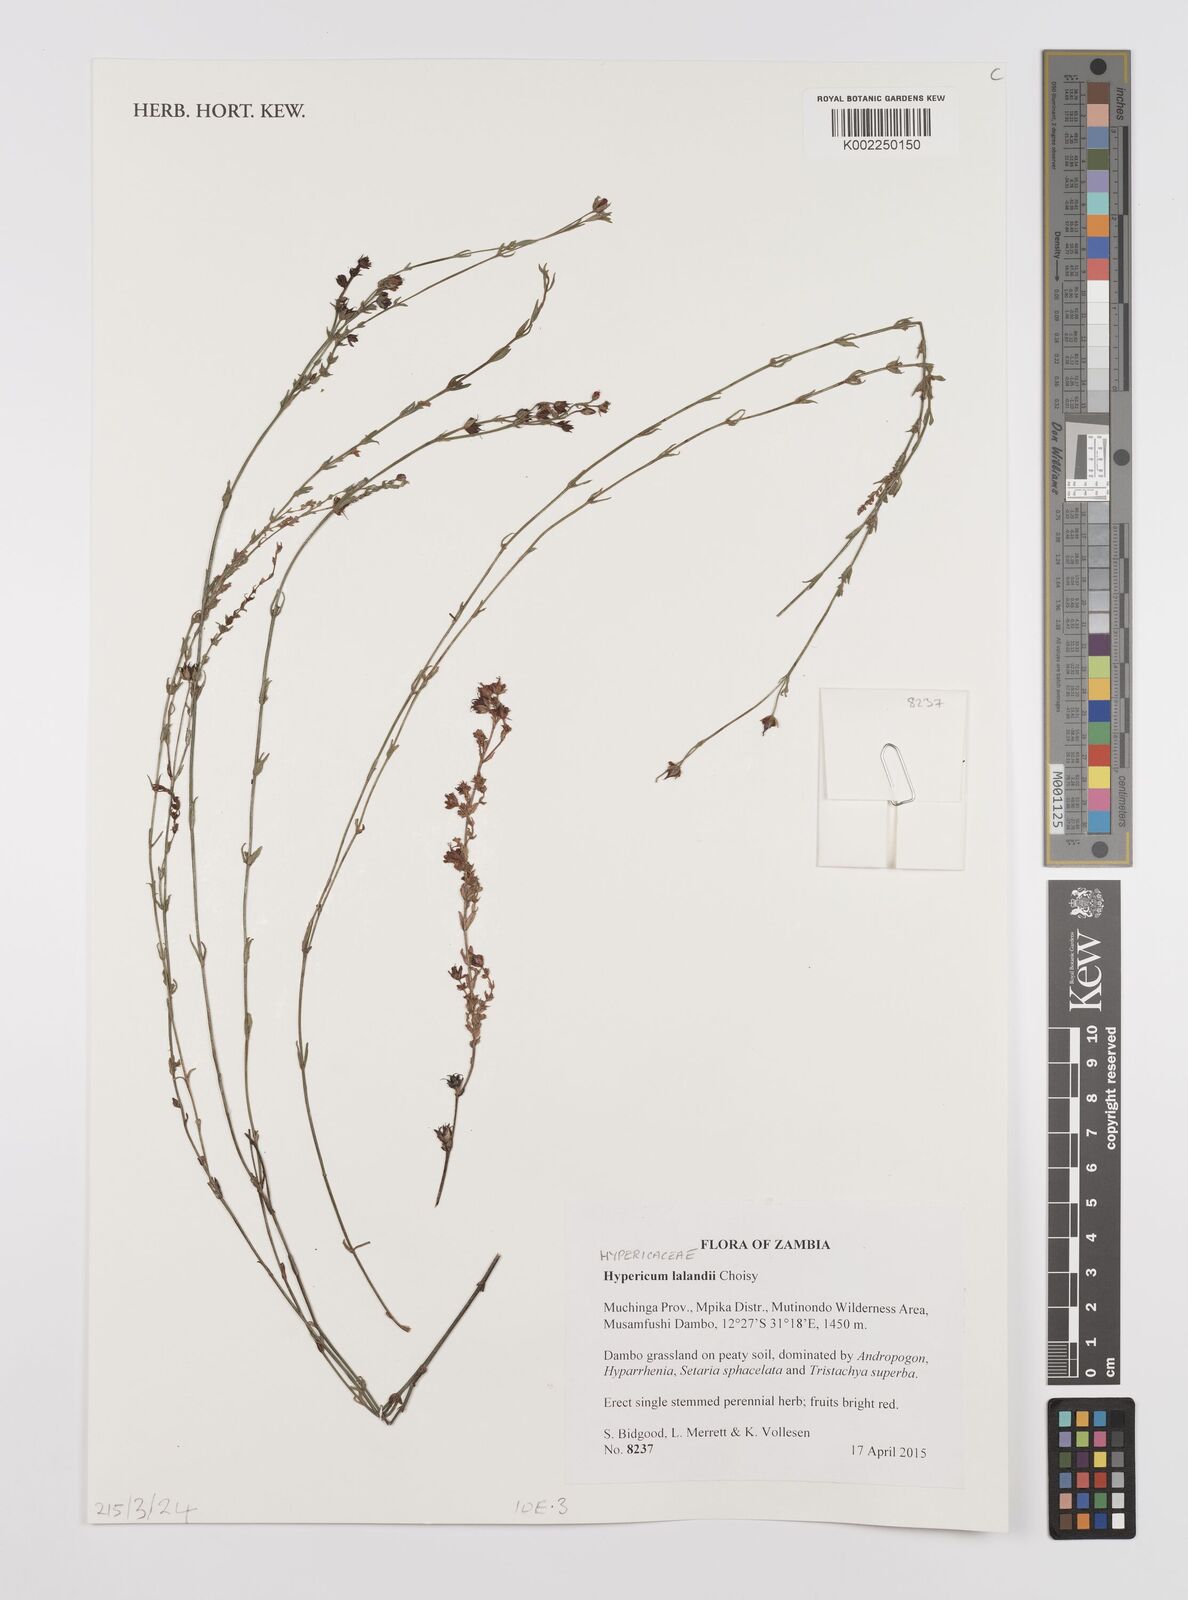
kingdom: Plantae
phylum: Tracheophyta
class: Magnoliopsida
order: Malpighiales
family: Hypericaceae
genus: Hypericum
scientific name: Hypericum lalandii
